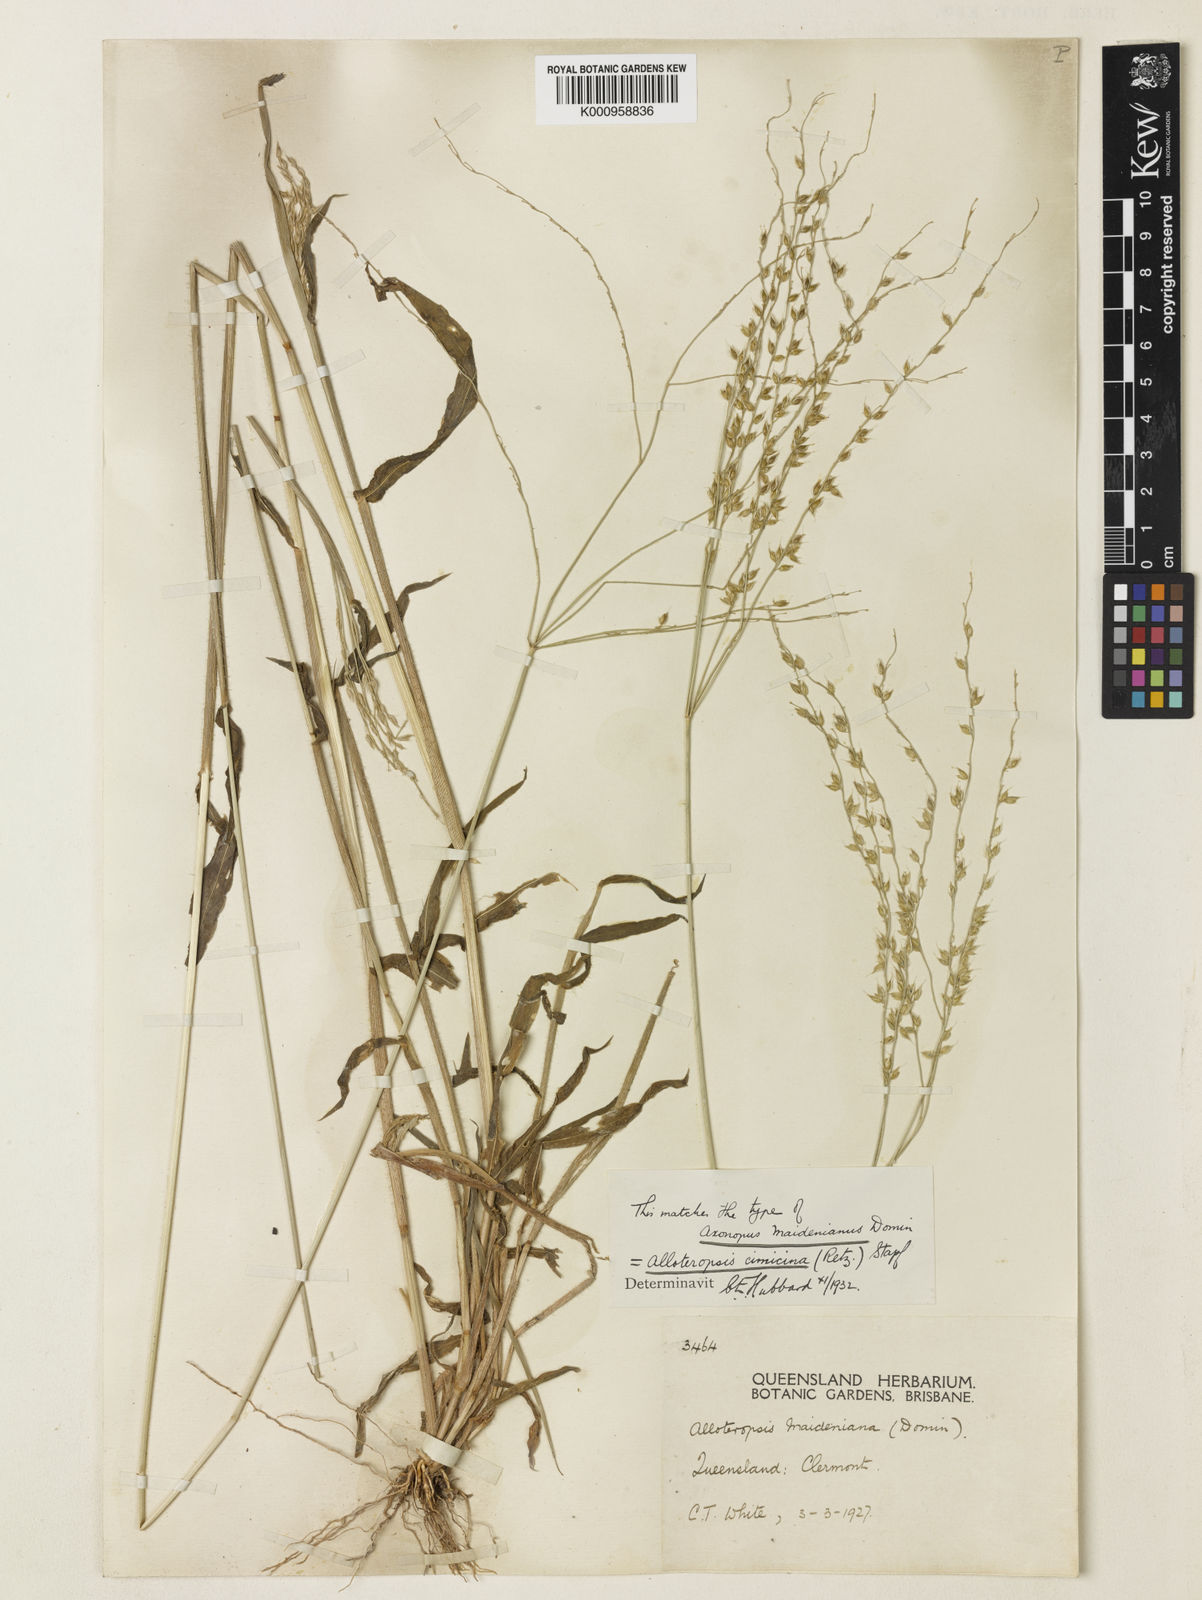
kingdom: Plantae
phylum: Tracheophyta
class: Liliopsida
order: Poales
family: Poaceae
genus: Alloteropsis
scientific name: Alloteropsis cimicina
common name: Summergrass
